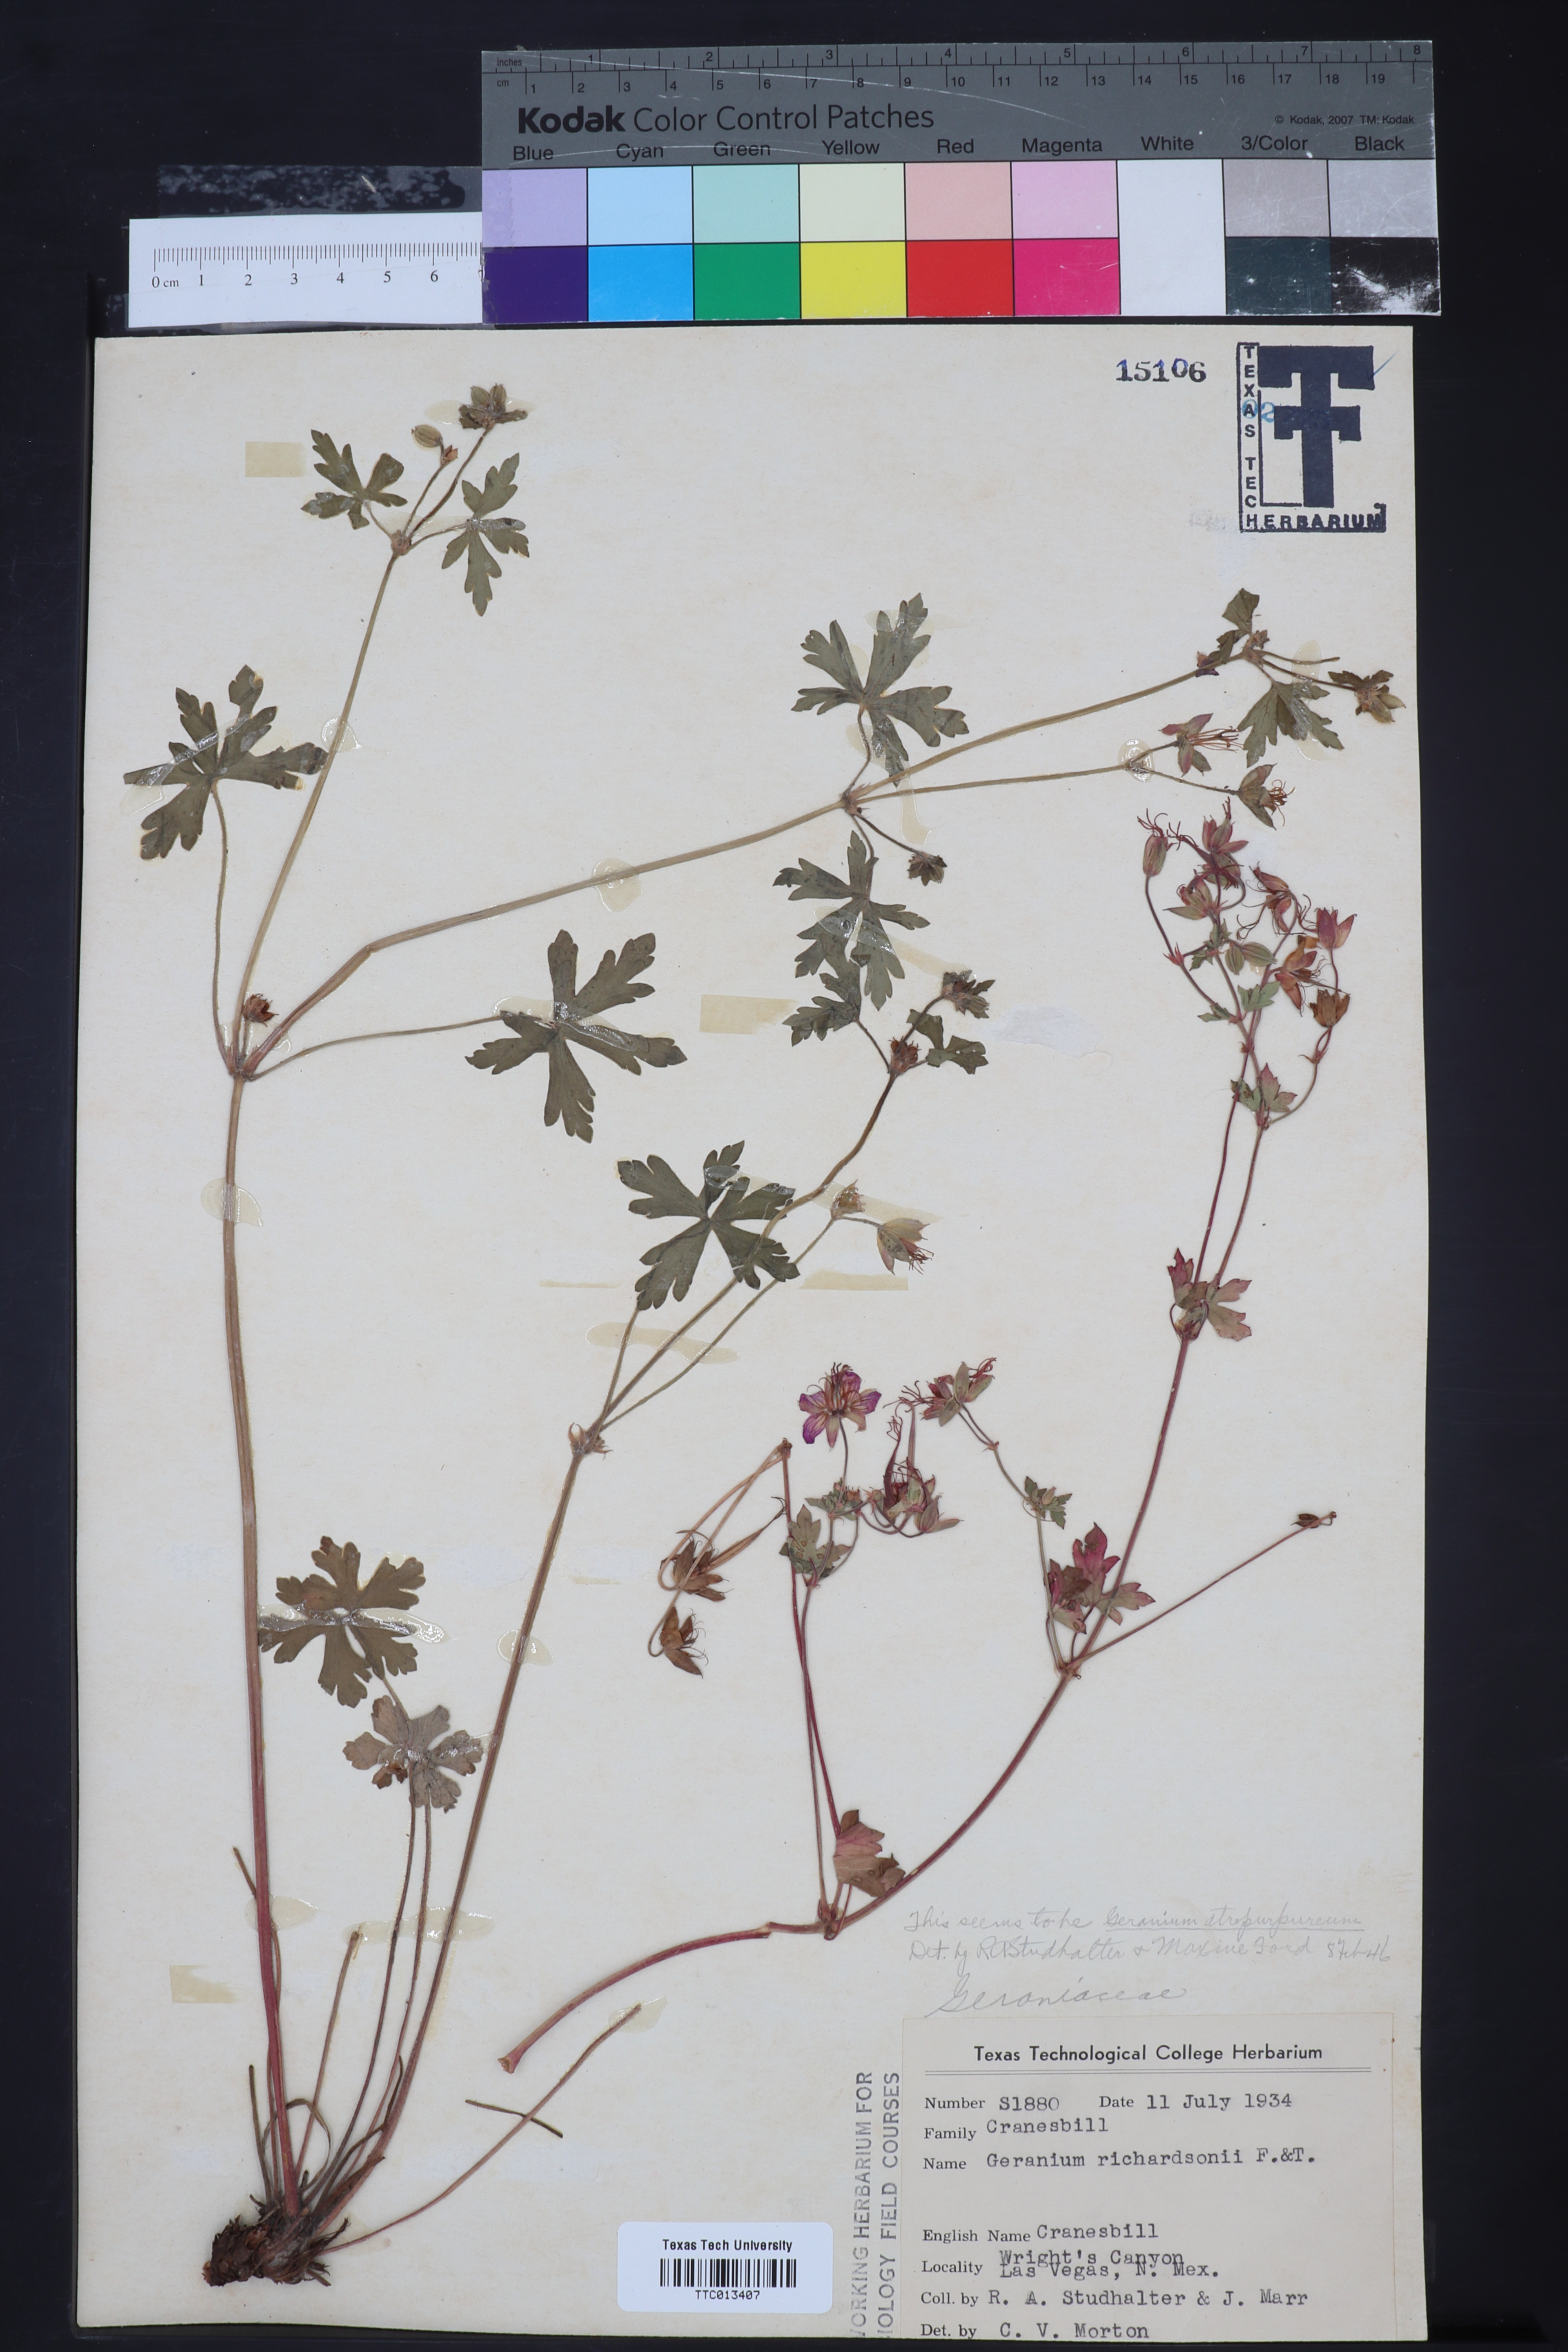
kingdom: Plantae
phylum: Tracheophyta
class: Magnoliopsida
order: Geraniales
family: Geraniaceae
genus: Geranium
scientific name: Geranium richardsonii
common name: Richardson's crane's-bill
